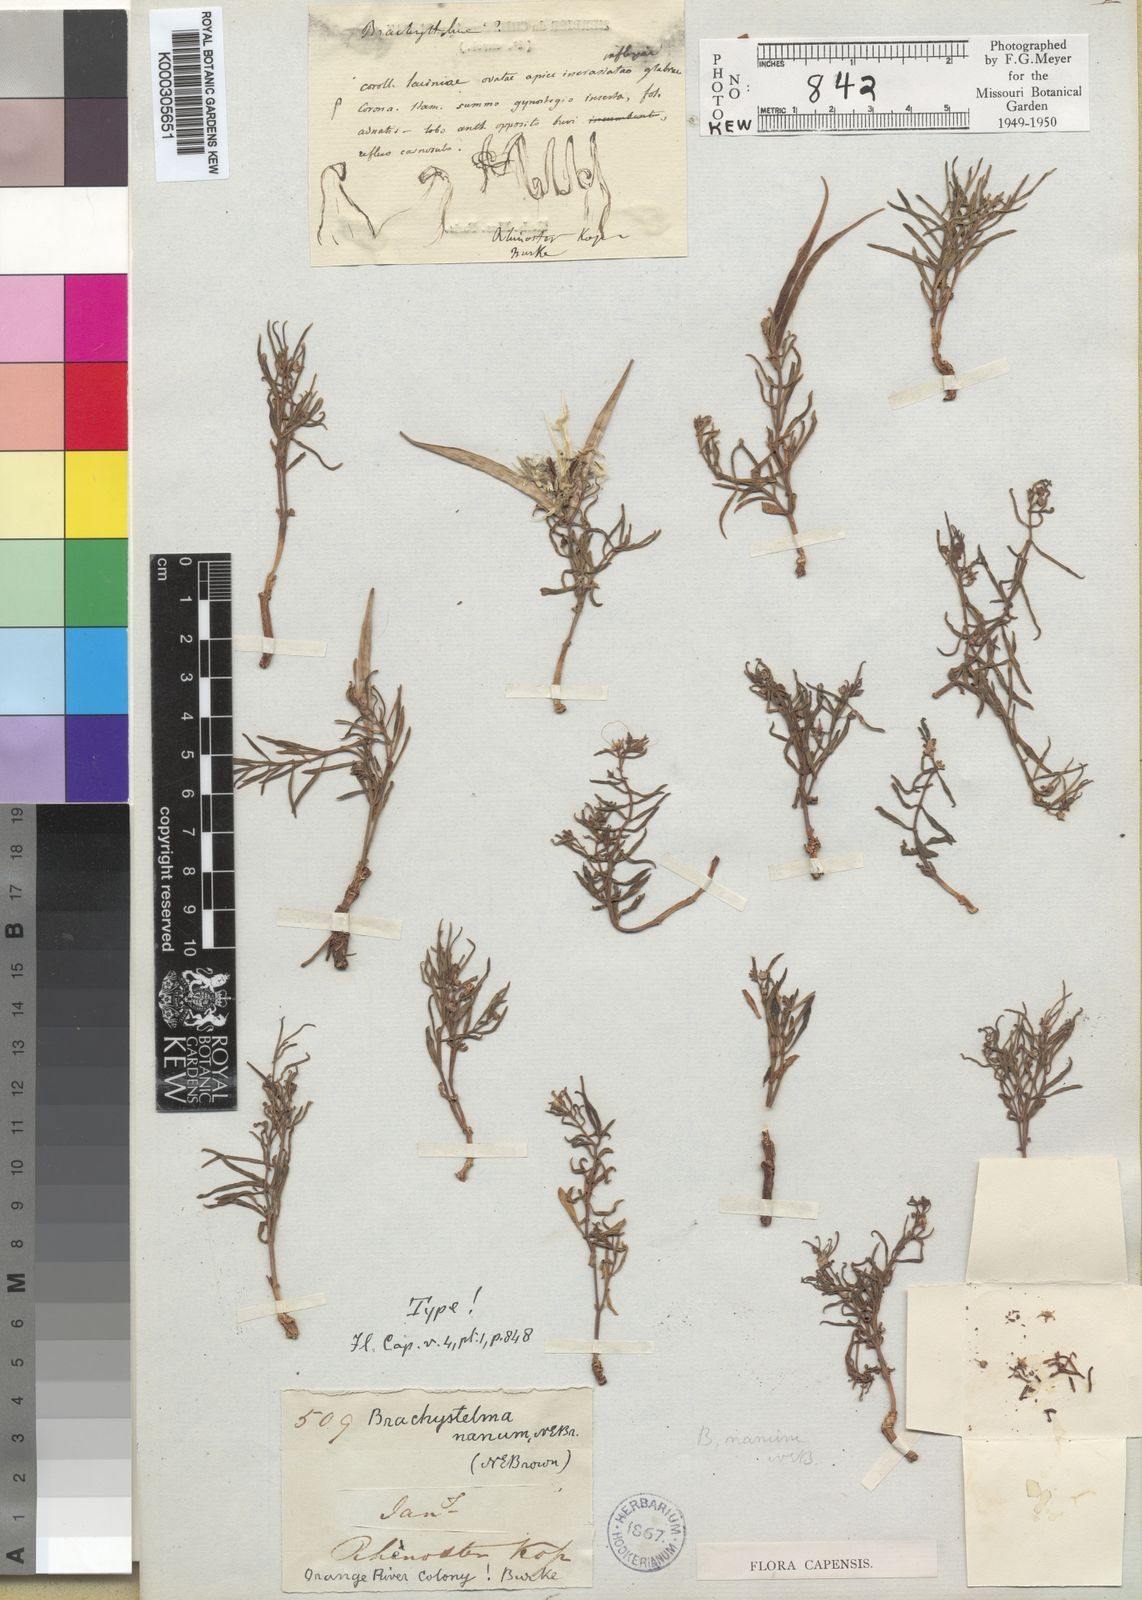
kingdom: Plantae
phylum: Tracheophyta
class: Magnoliopsida
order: Gentianales
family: Apocynaceae
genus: Ceropegia
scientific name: Ceropegia nanior
